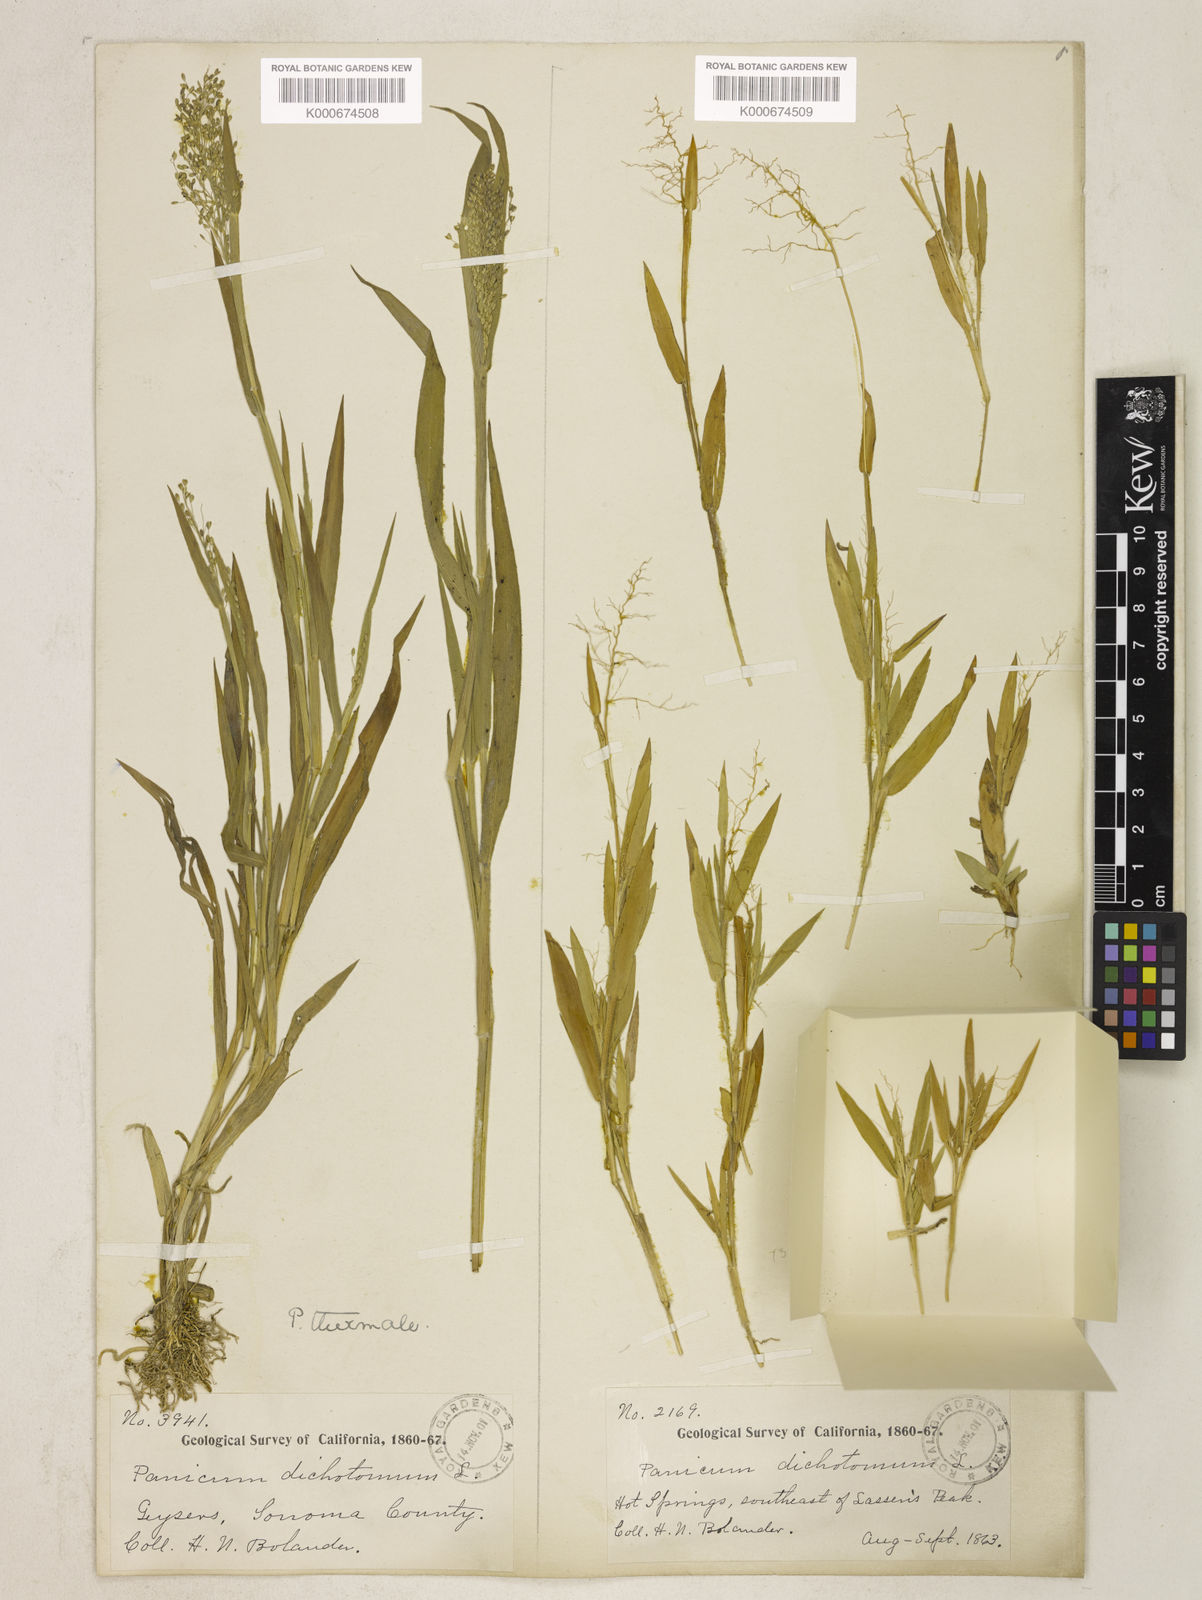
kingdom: Plantae
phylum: Tracheophyta
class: Liliopsida
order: Poales
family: Poaceae
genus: Dichanthelium
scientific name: Dichanthelium thermale
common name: Geyser panicgrass
